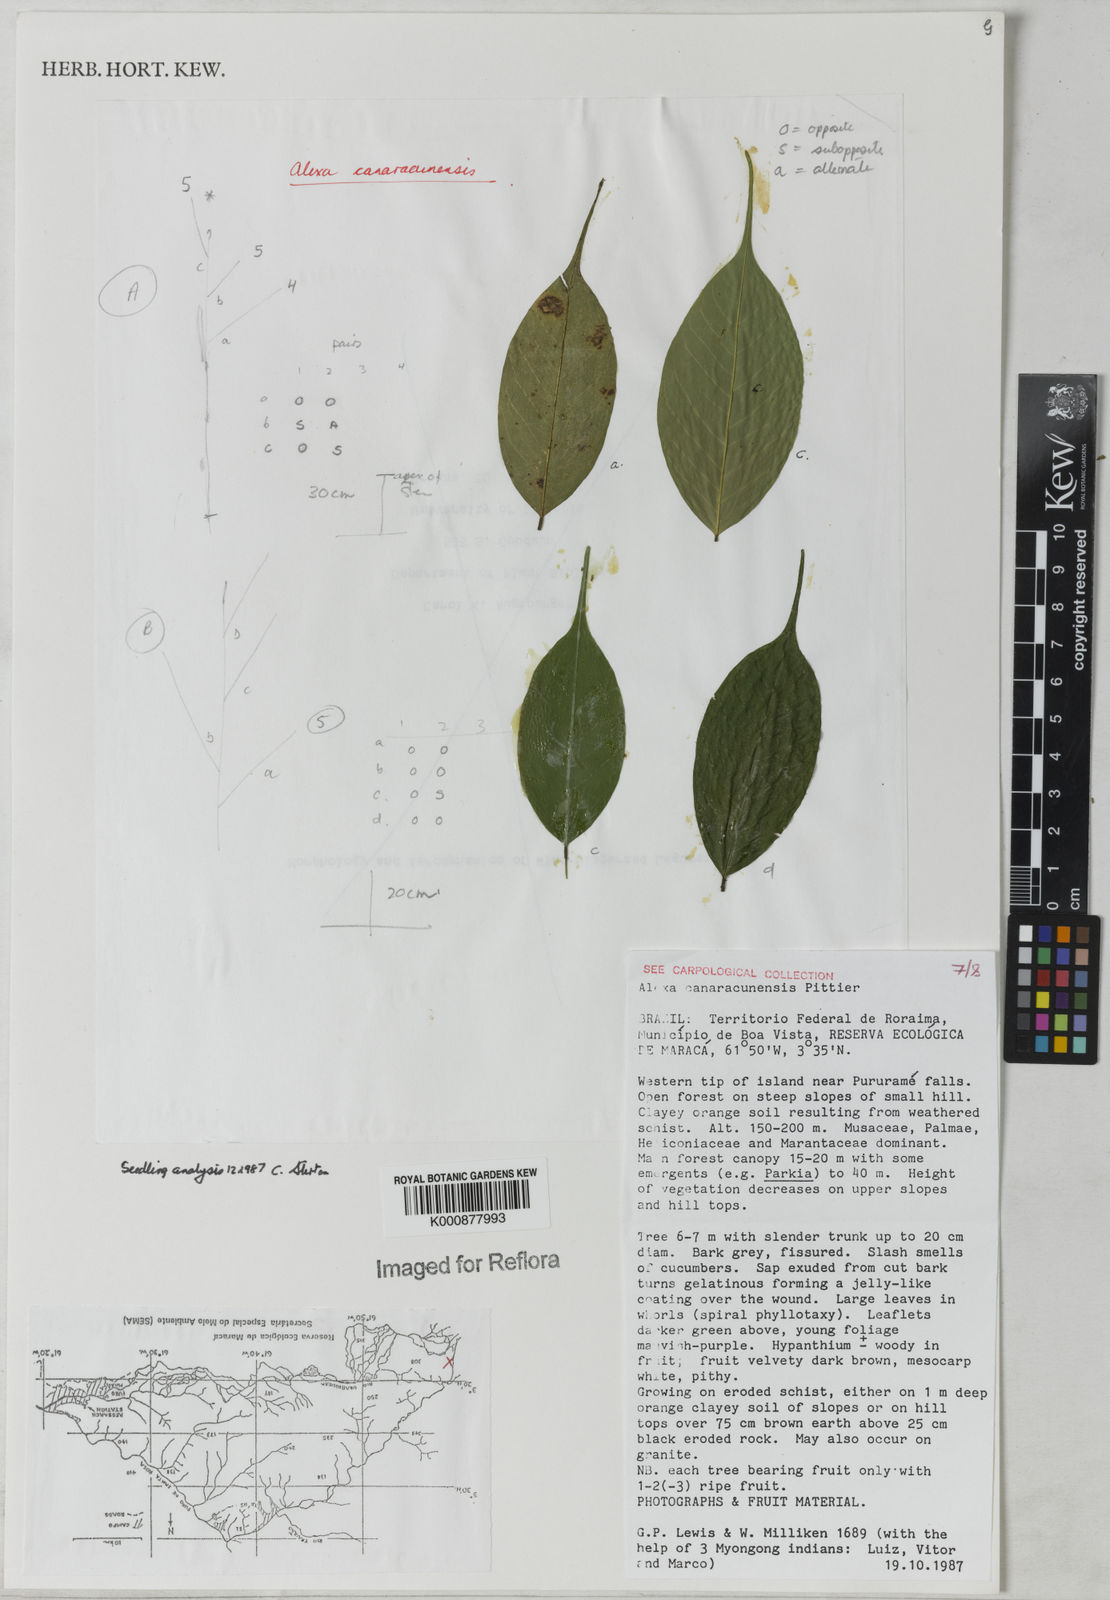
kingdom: Plantae
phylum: Tracheophyta
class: Magnoliopsida
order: Fabales
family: Fabaceae
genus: Alexa
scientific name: Alexa canaracunensis
